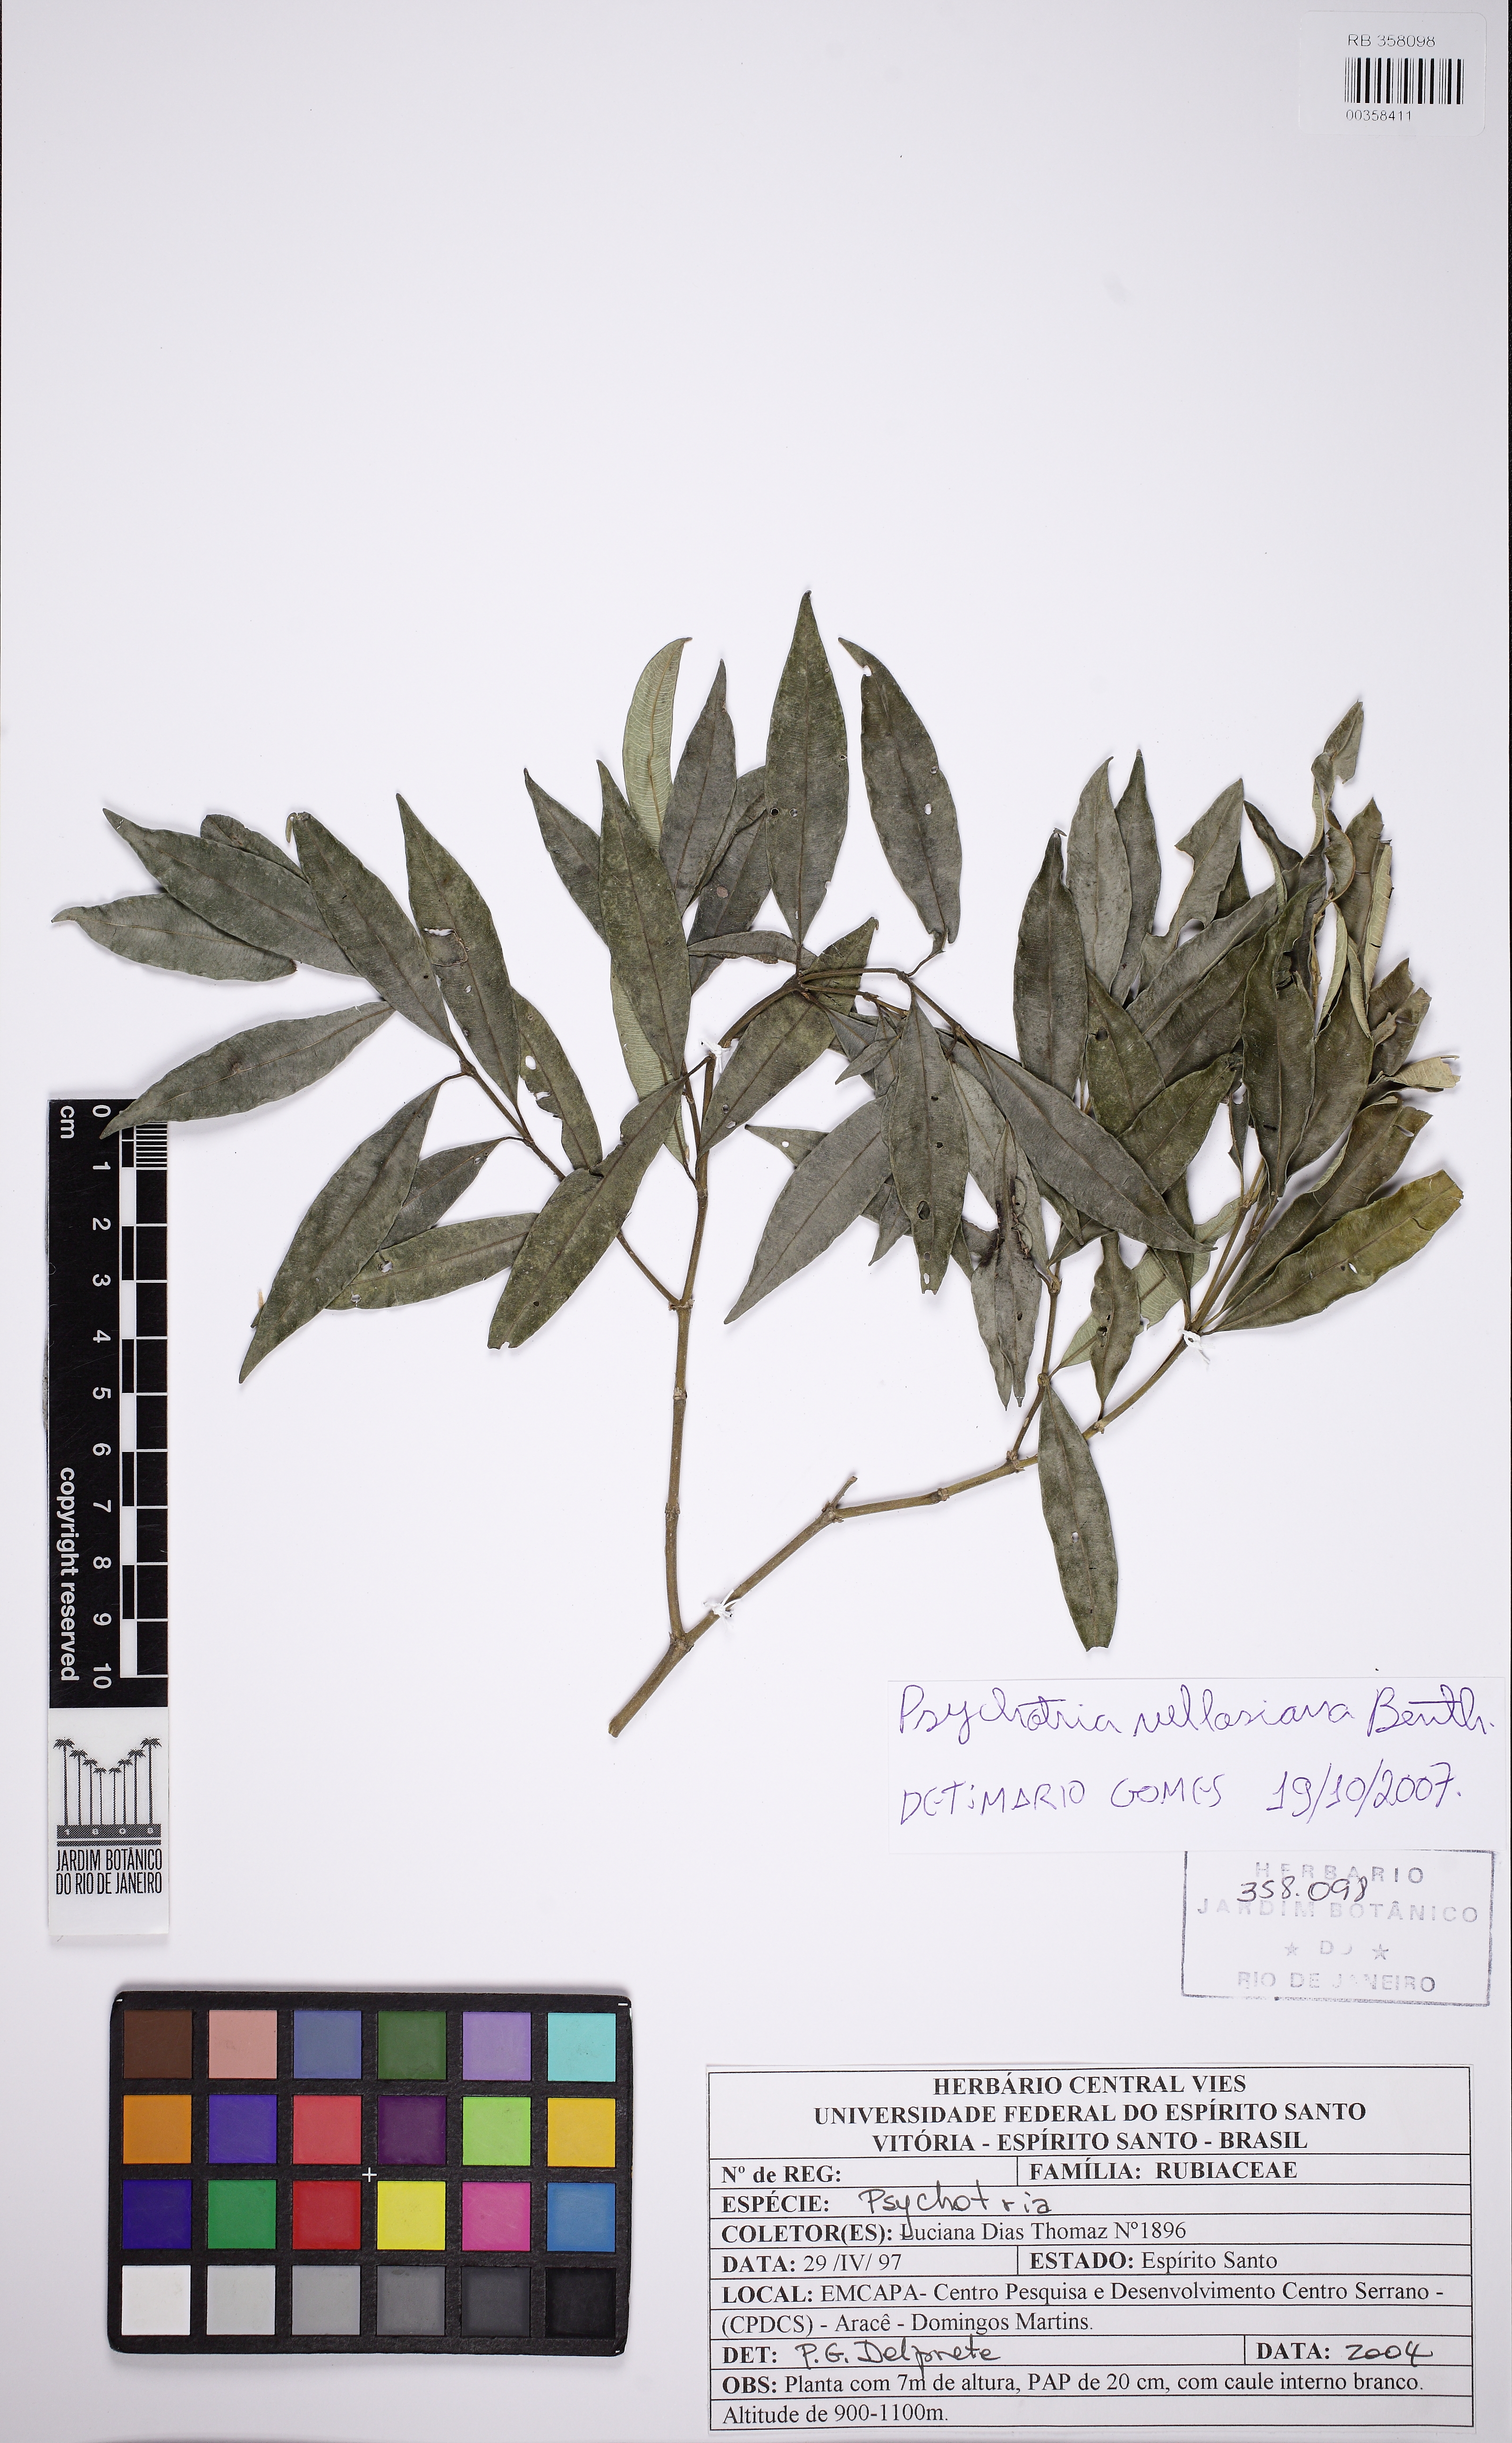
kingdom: Plantae
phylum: Tracheophyta
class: Magnoliopsida
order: Gentianales
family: Rubiaceae
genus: Palicourea
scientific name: Palicourea sessilis
